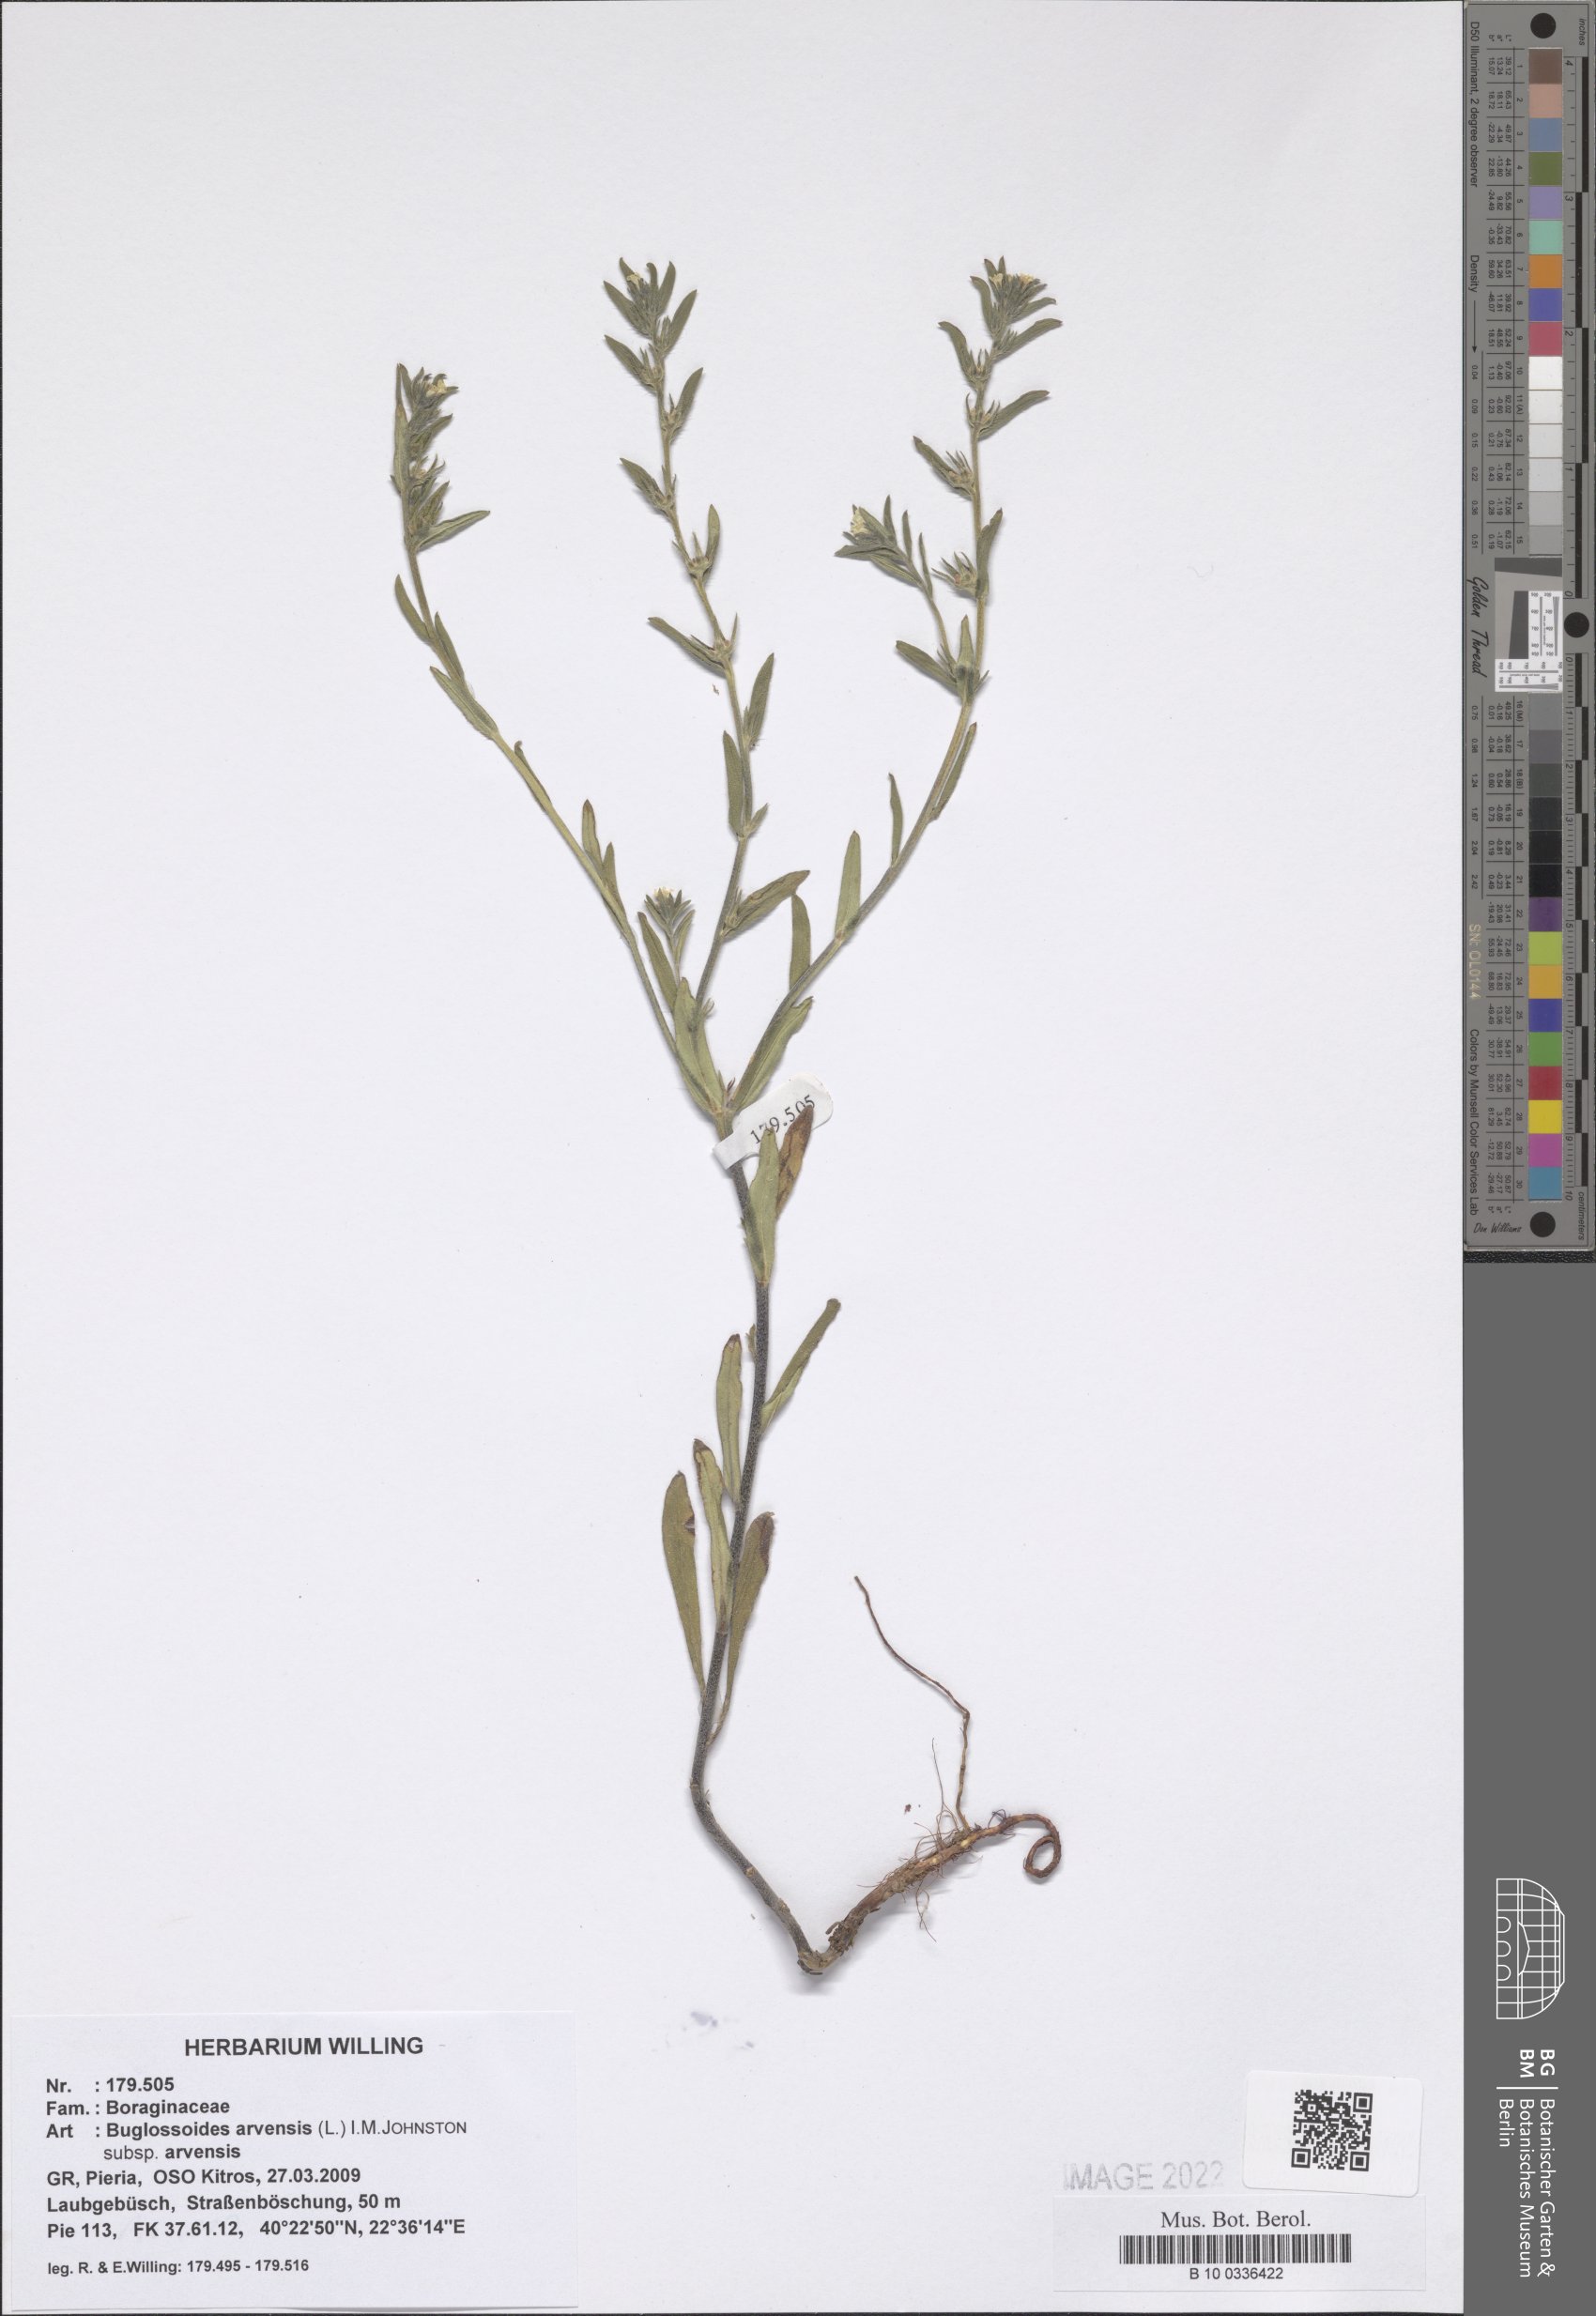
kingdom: Plantae
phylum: Tracheophyta
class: Magnoliopsida
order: Boraginales
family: Boraginaceae
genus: Buglossoides
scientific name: Buglossoides arvensis
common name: Corn gromwell
